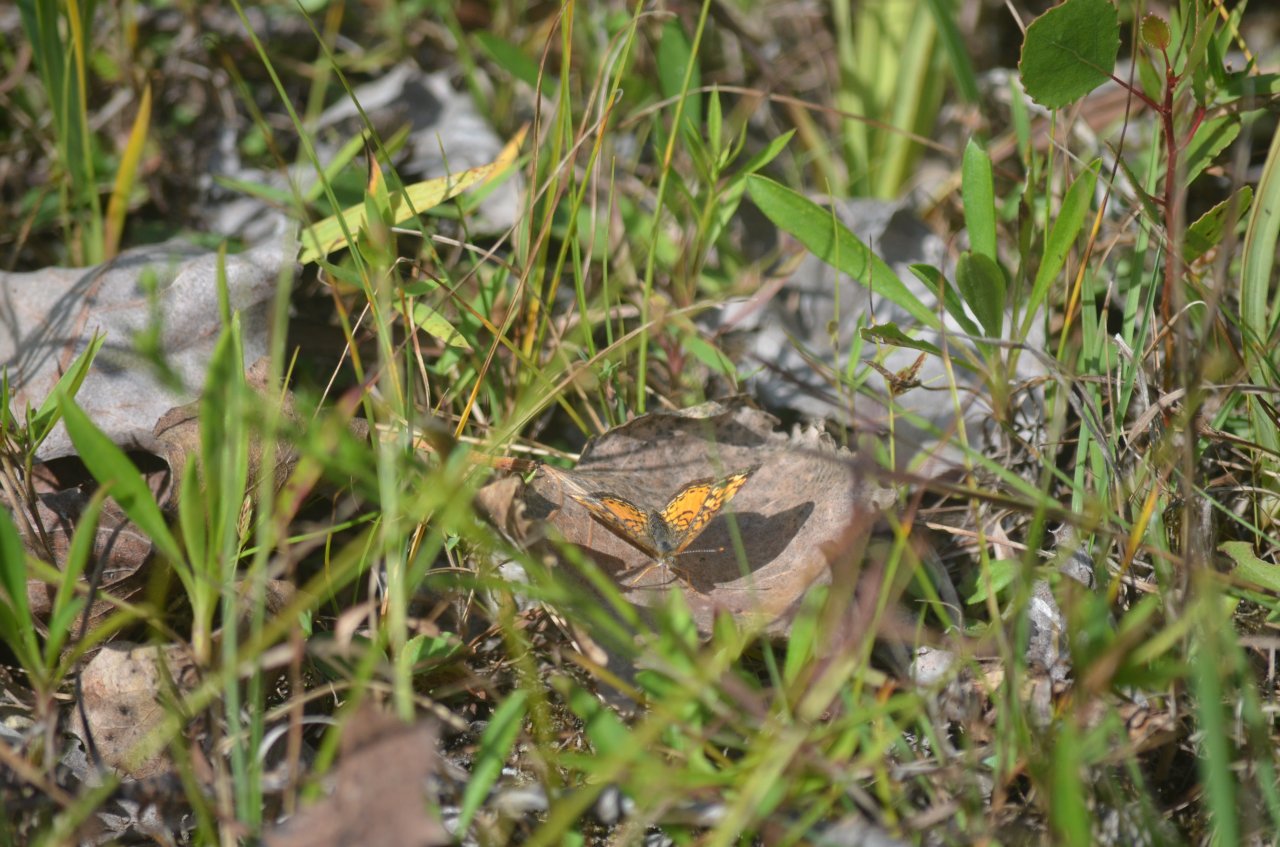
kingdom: Animalia
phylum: Arthropoda
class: Insecta
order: Lepidoptera
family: Nymphalidae
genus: Phyciodes
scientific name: Phyciodes tharos
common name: Northern Crescent
